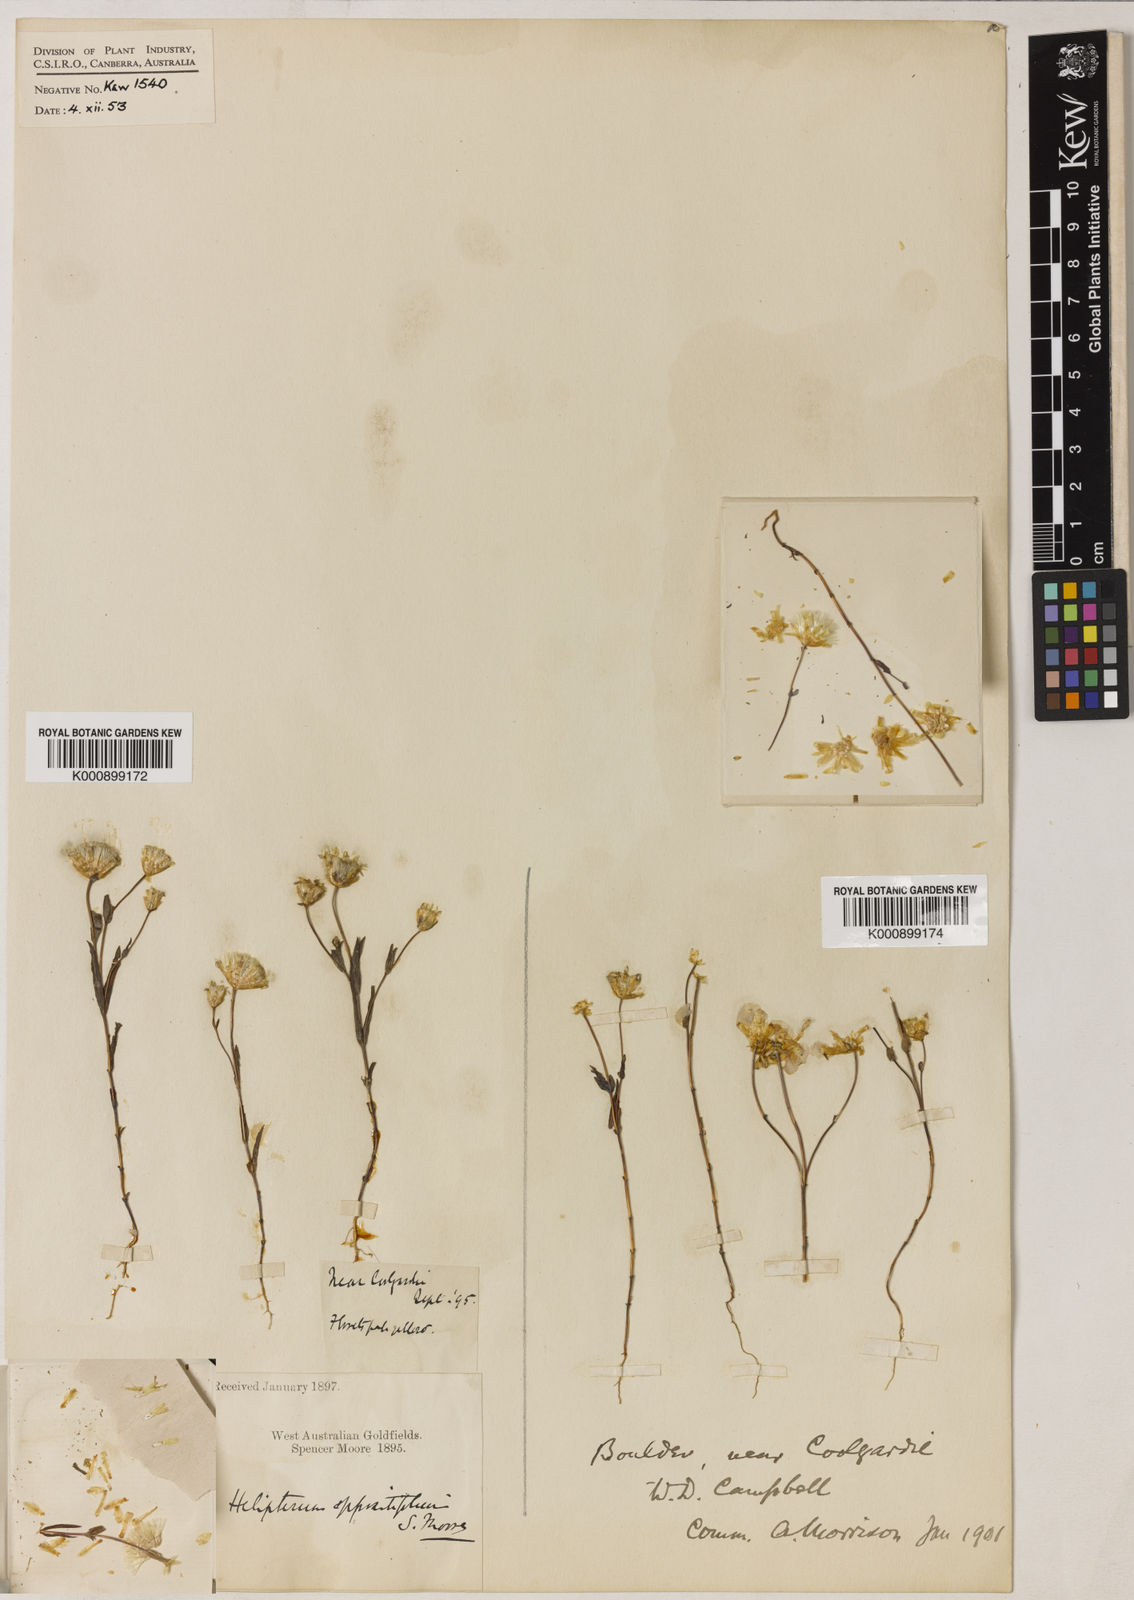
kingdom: Plantae
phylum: Tracheophyta
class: Magnoliopsida
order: Asterales
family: Asteraceae
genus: Rhodanthe
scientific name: Rhodanthe oppositifolia
